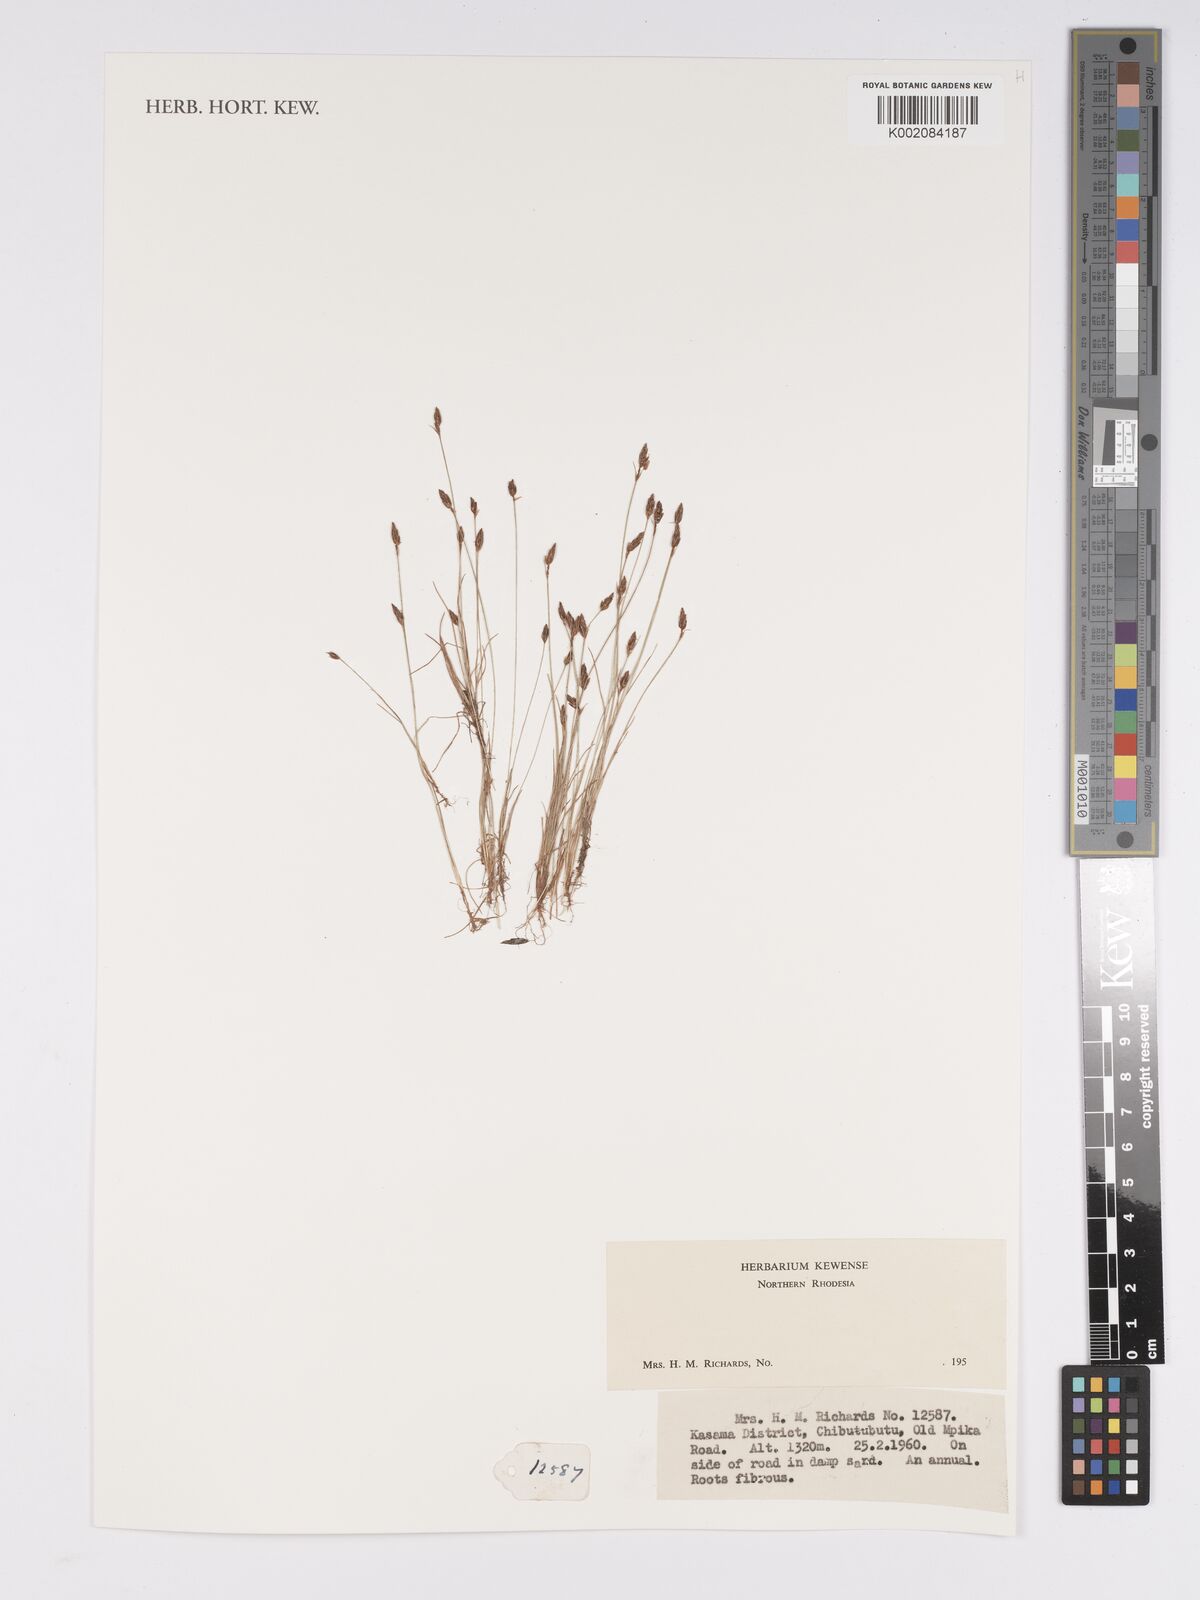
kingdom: Plantae
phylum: Tracheophyta
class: Liliopsida
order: Poales
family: Cyperaceae
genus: Bulbostylis
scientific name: Bulbostylis
